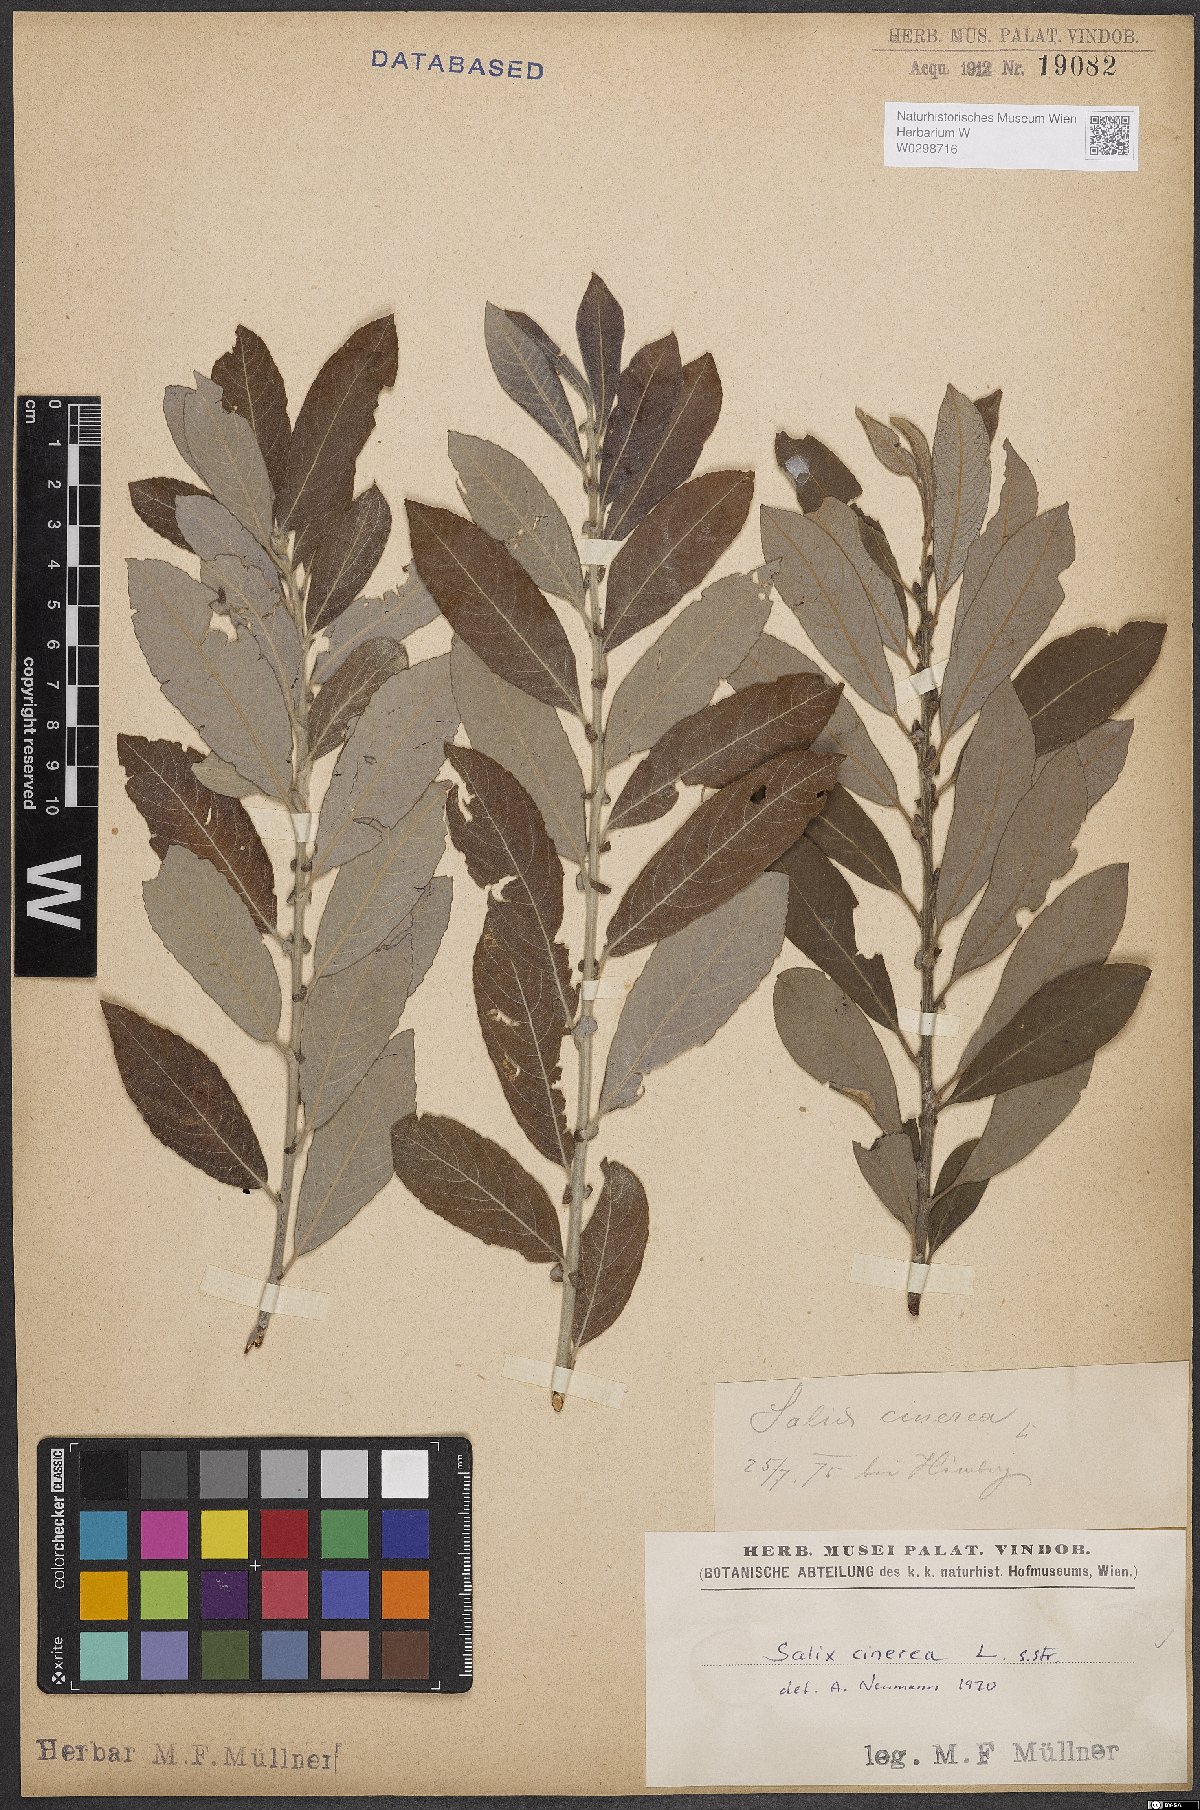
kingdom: Plantae
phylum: Tracheophyta
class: Magnoliopsida
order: Malpighiales
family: Salicaceae
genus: Salix
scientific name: Salix cinerea
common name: Common sallow
